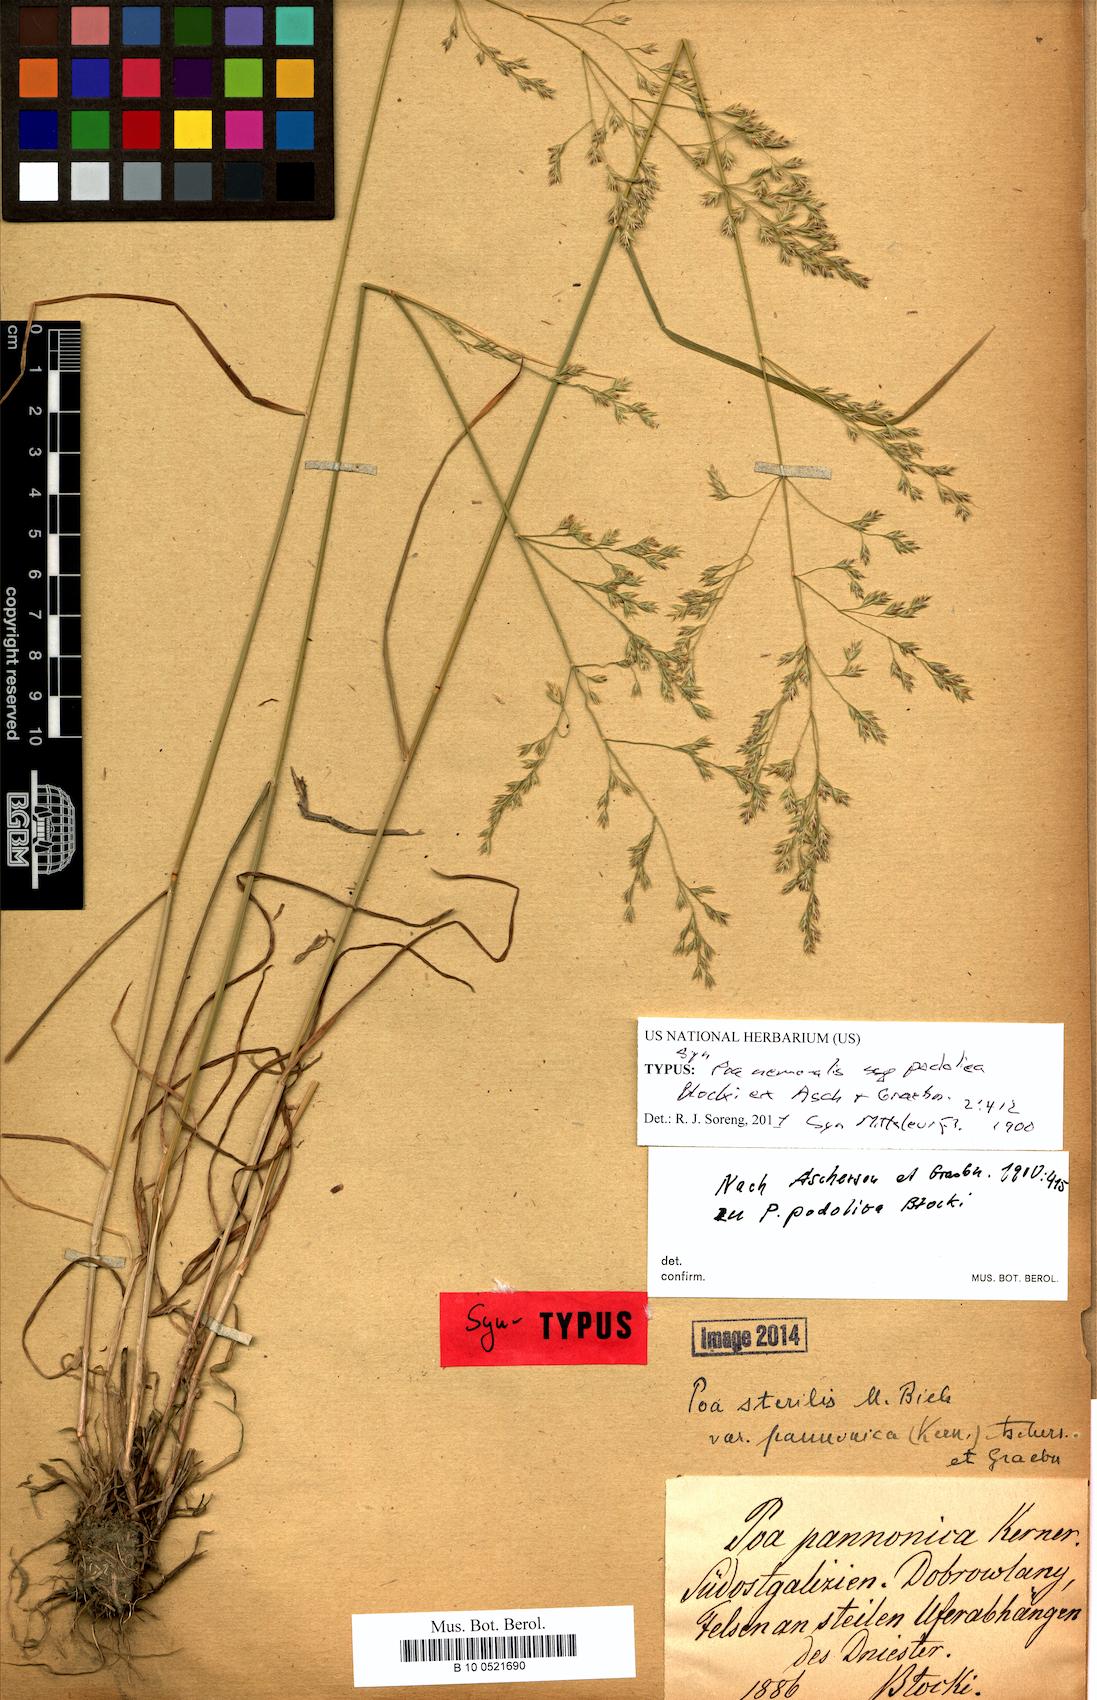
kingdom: Plantae
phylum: Tracheophyta
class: Liliopsida
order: Poales
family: Poaceae
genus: Poa
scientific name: Poa versicolor
